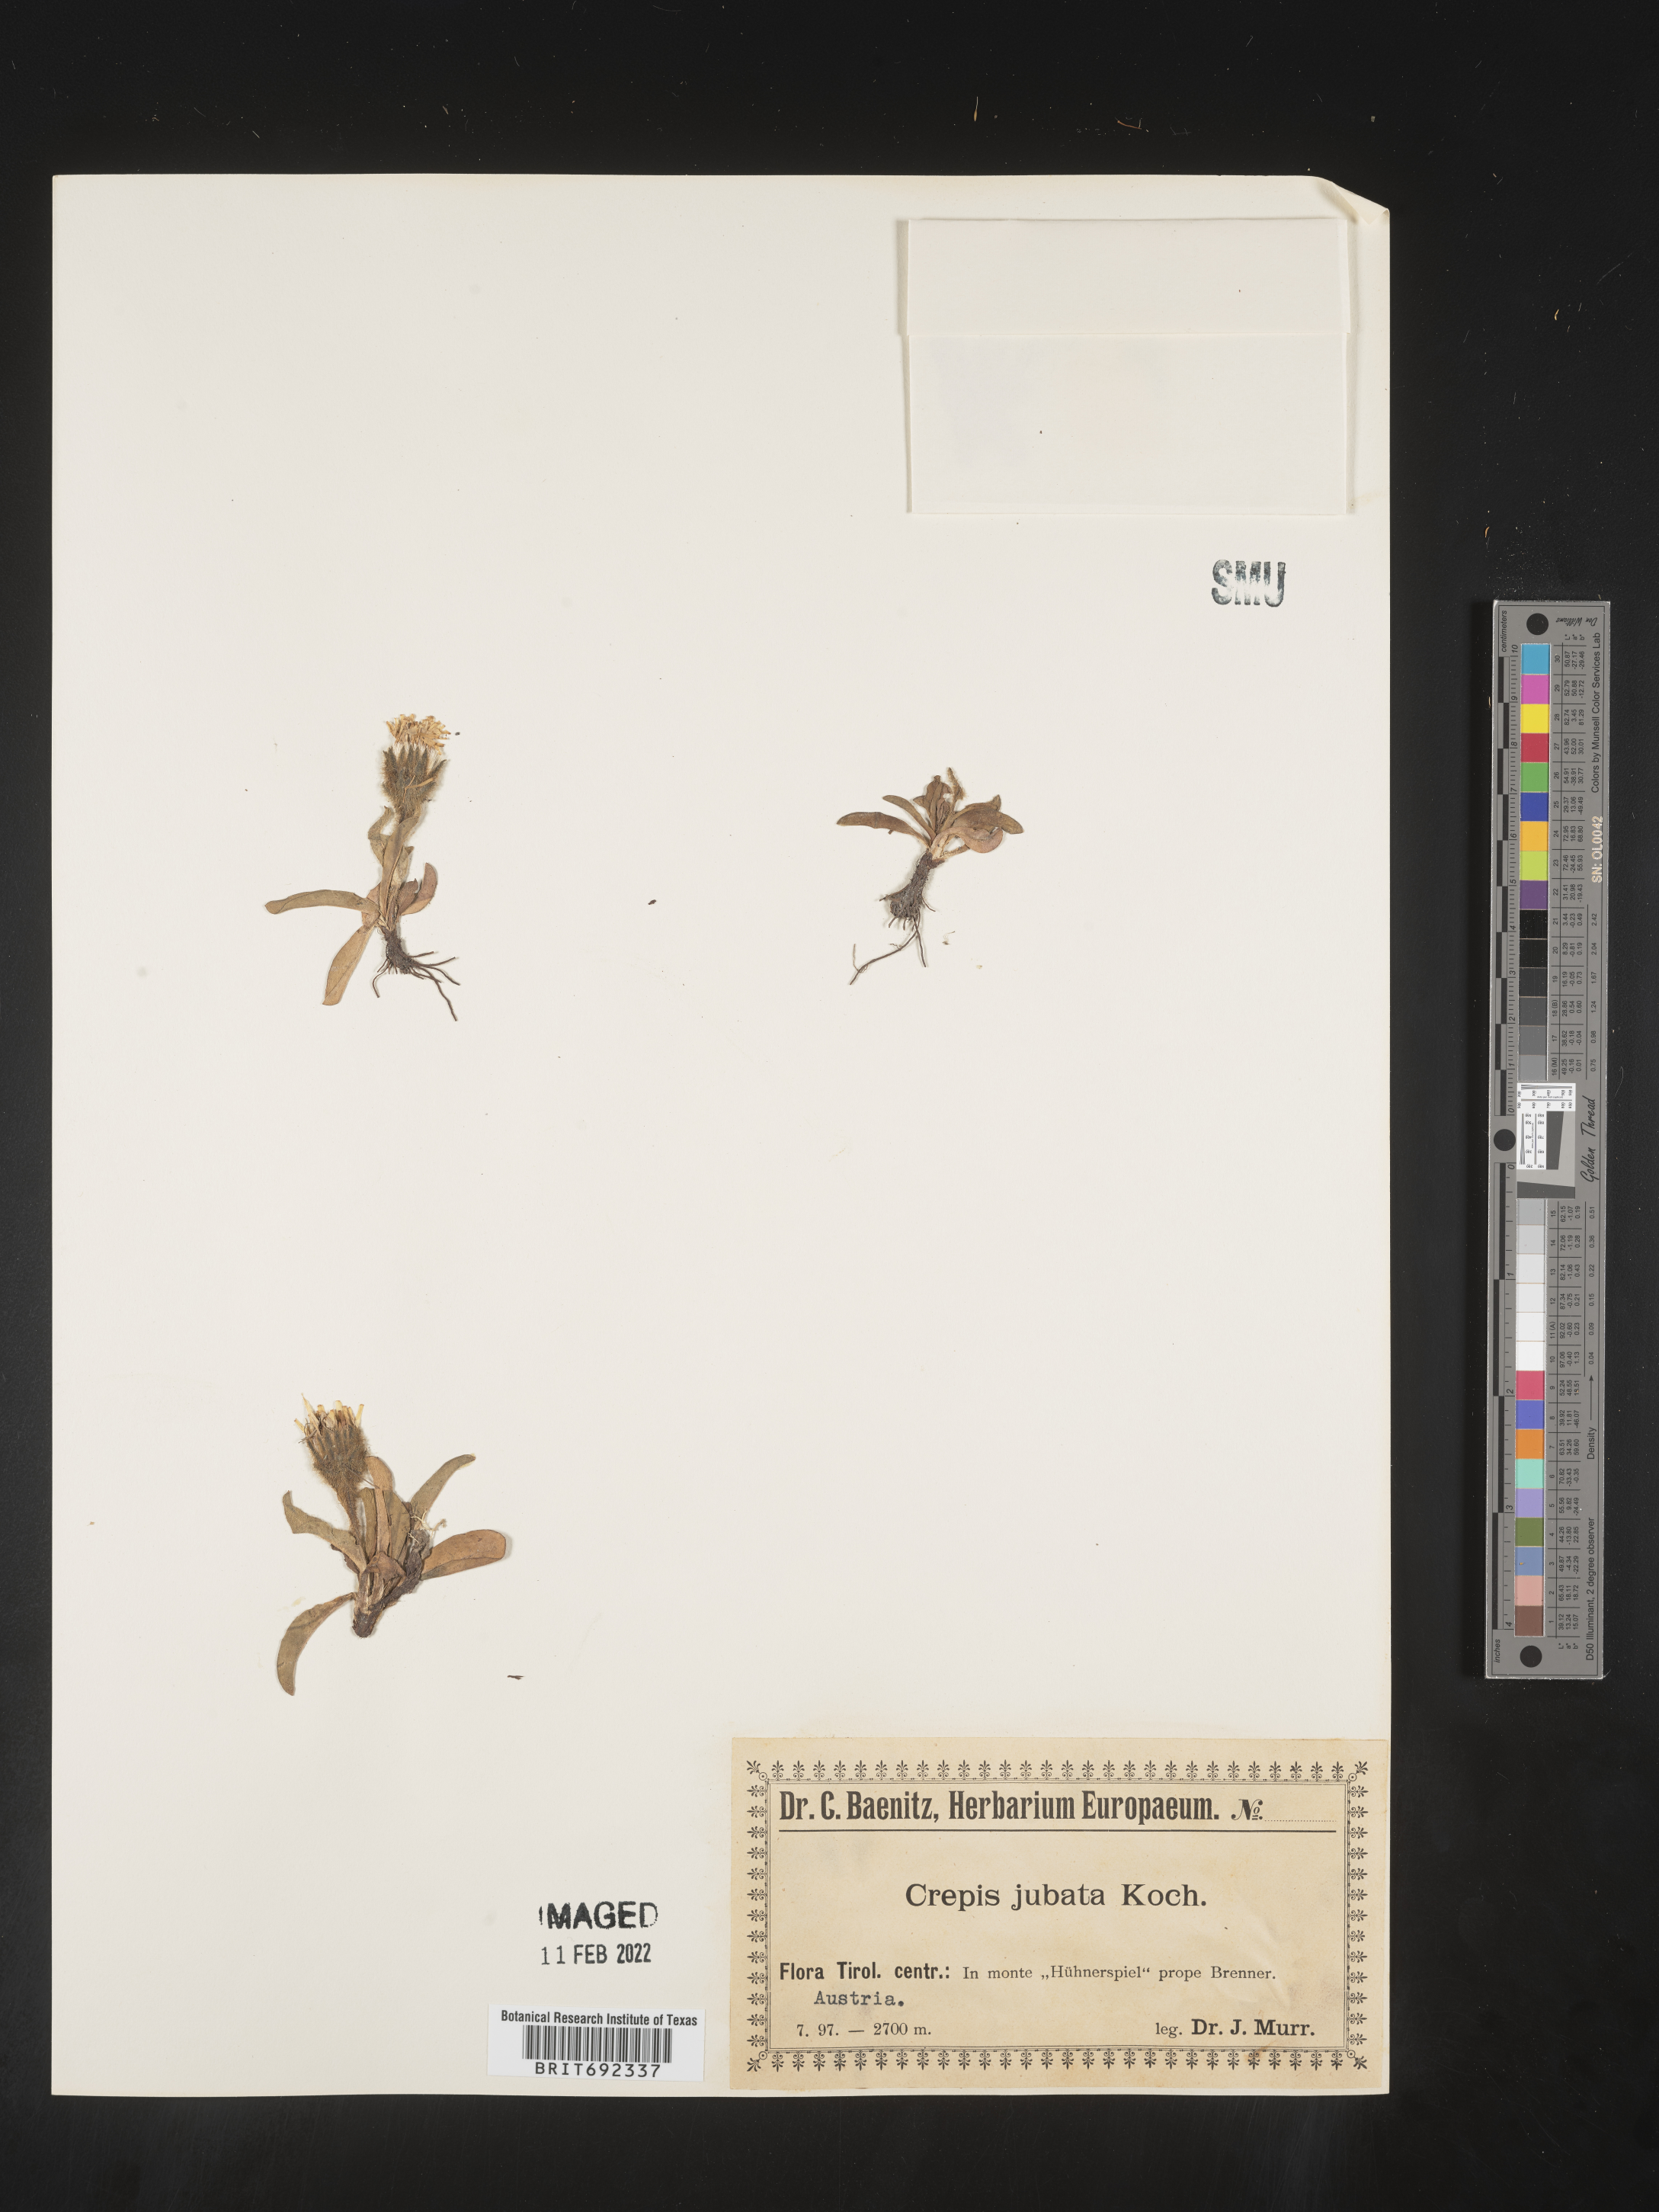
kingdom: Plantae
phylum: Tracheophyta
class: Magnoliopsida
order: Asterales
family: Asteraceae
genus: Crepis
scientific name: Crepis
